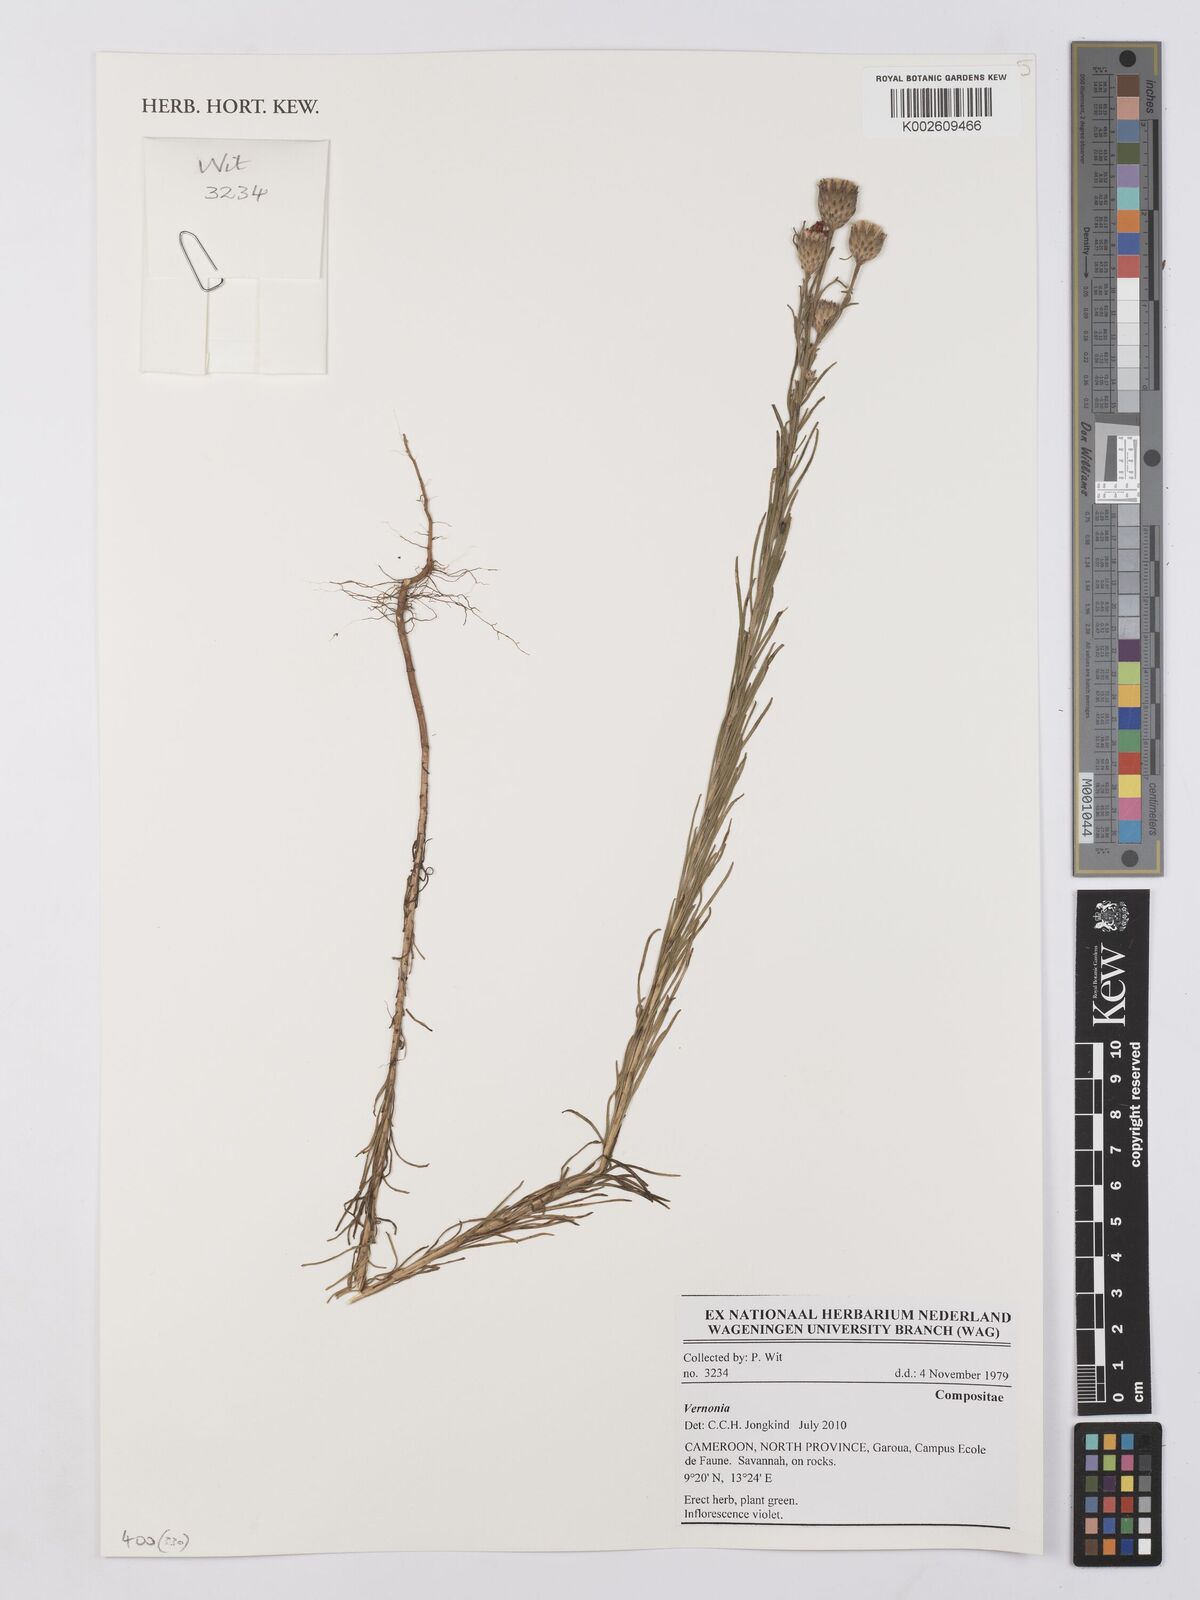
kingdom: Plantae
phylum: Tracheophyta
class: Magnoliopsida
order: Asterales
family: Asteraceae
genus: Vernonia
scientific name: Vernonia
